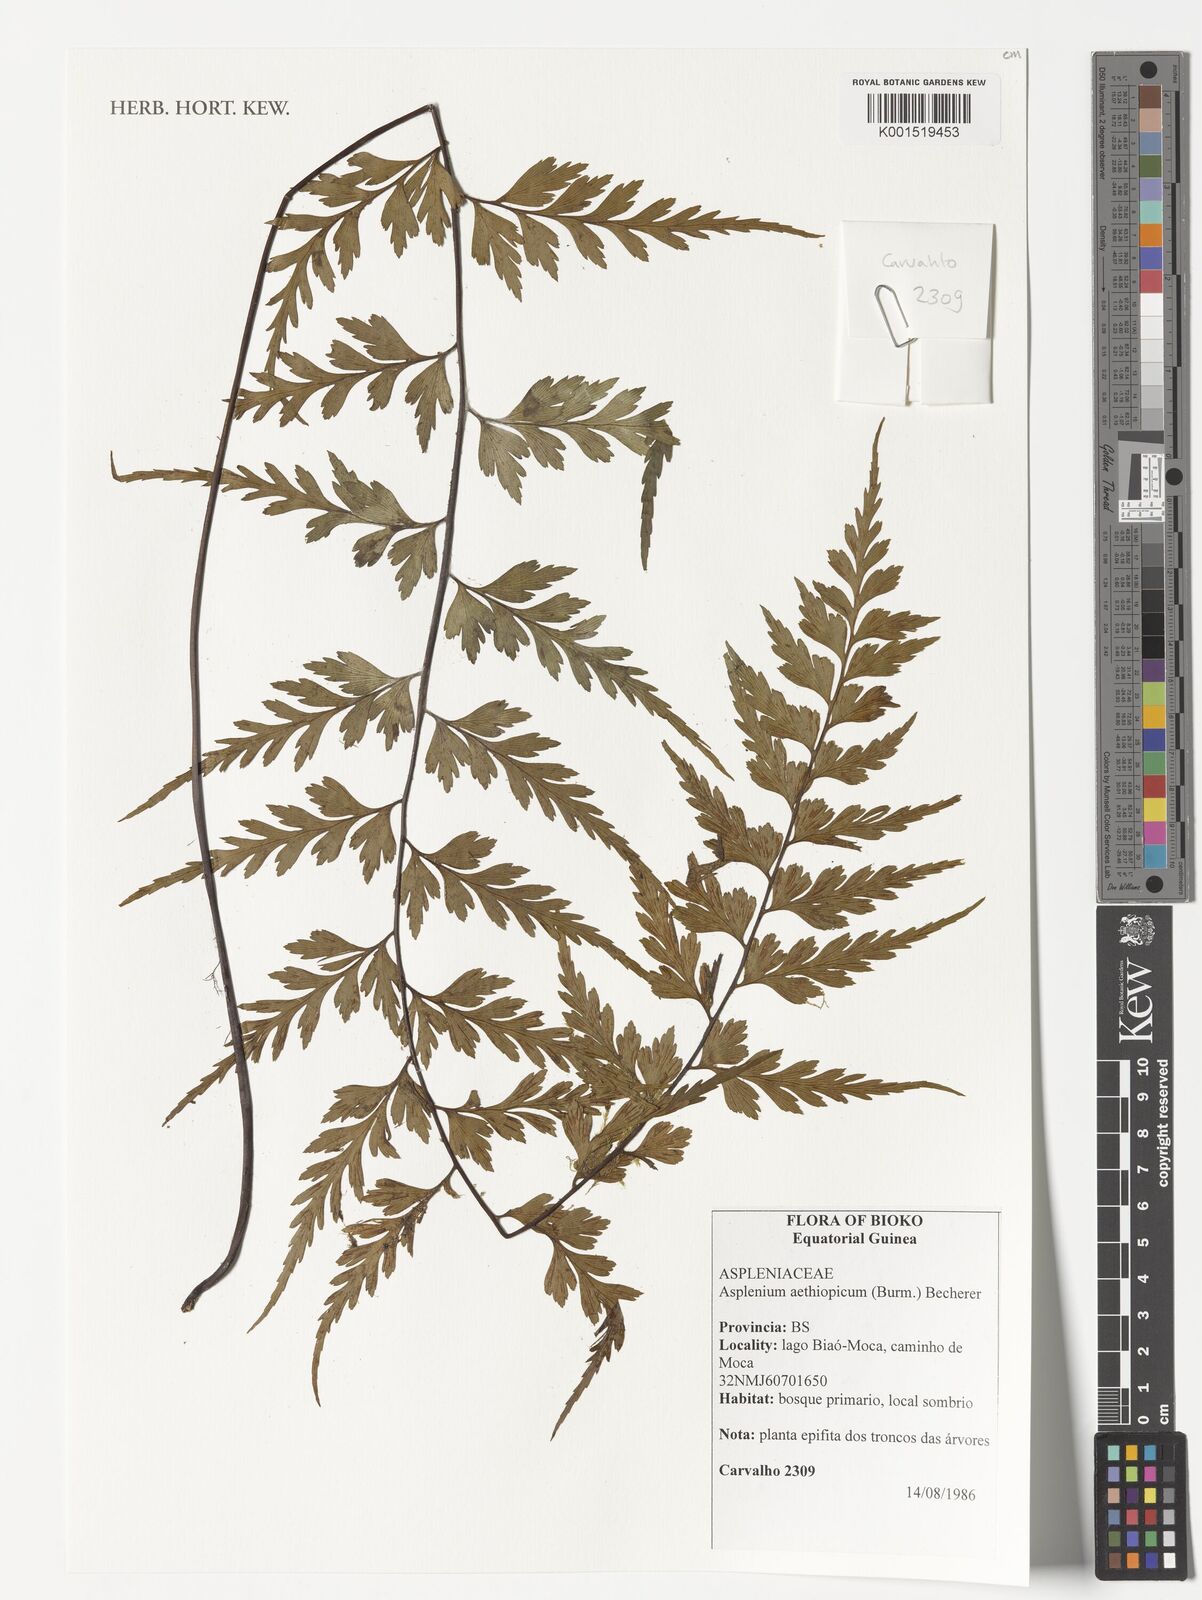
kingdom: Plantae
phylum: Tracheophyta
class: Polypodiopsida
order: Polypodiales
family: Aspleniaceae
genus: Asplenium
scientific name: Asplenium aethiopicum
